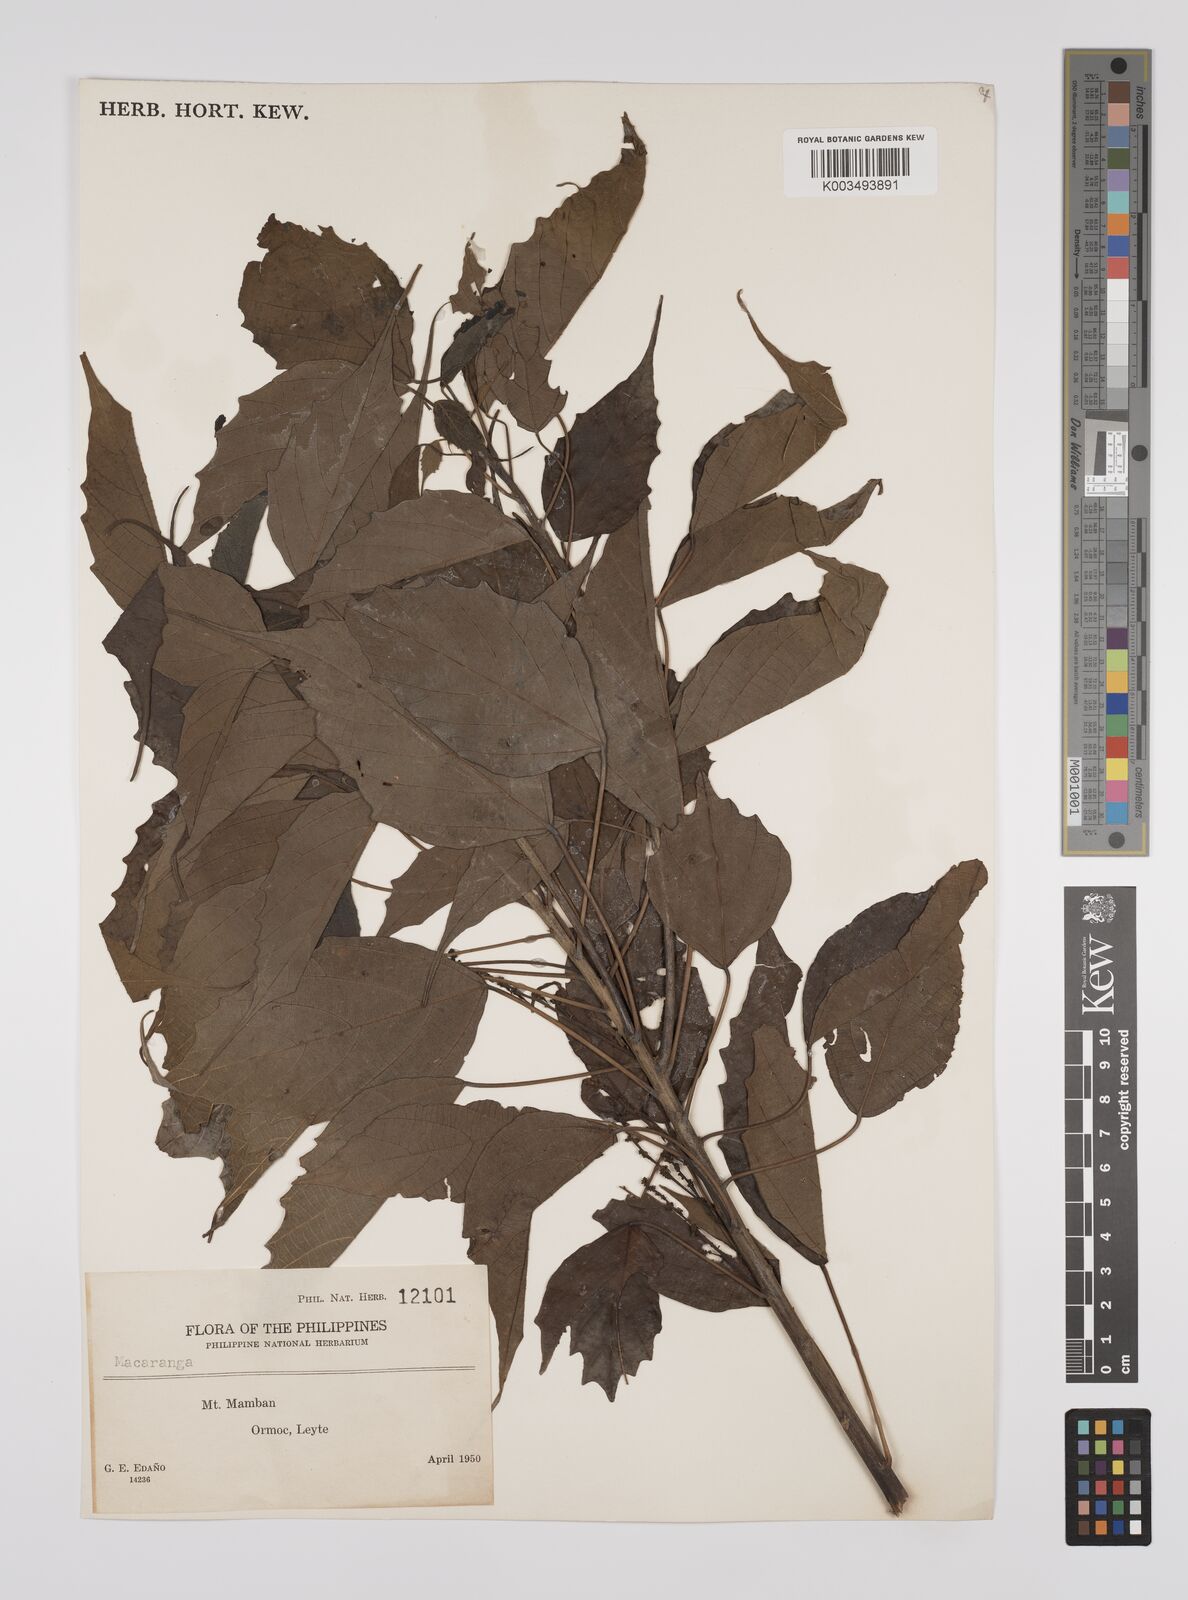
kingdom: Plantae
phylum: Tracheophyta
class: Magnoliopsida
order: Malpighiales
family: Euphorbiaceae
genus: Macaranga
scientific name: Macaranga caudatifolia
